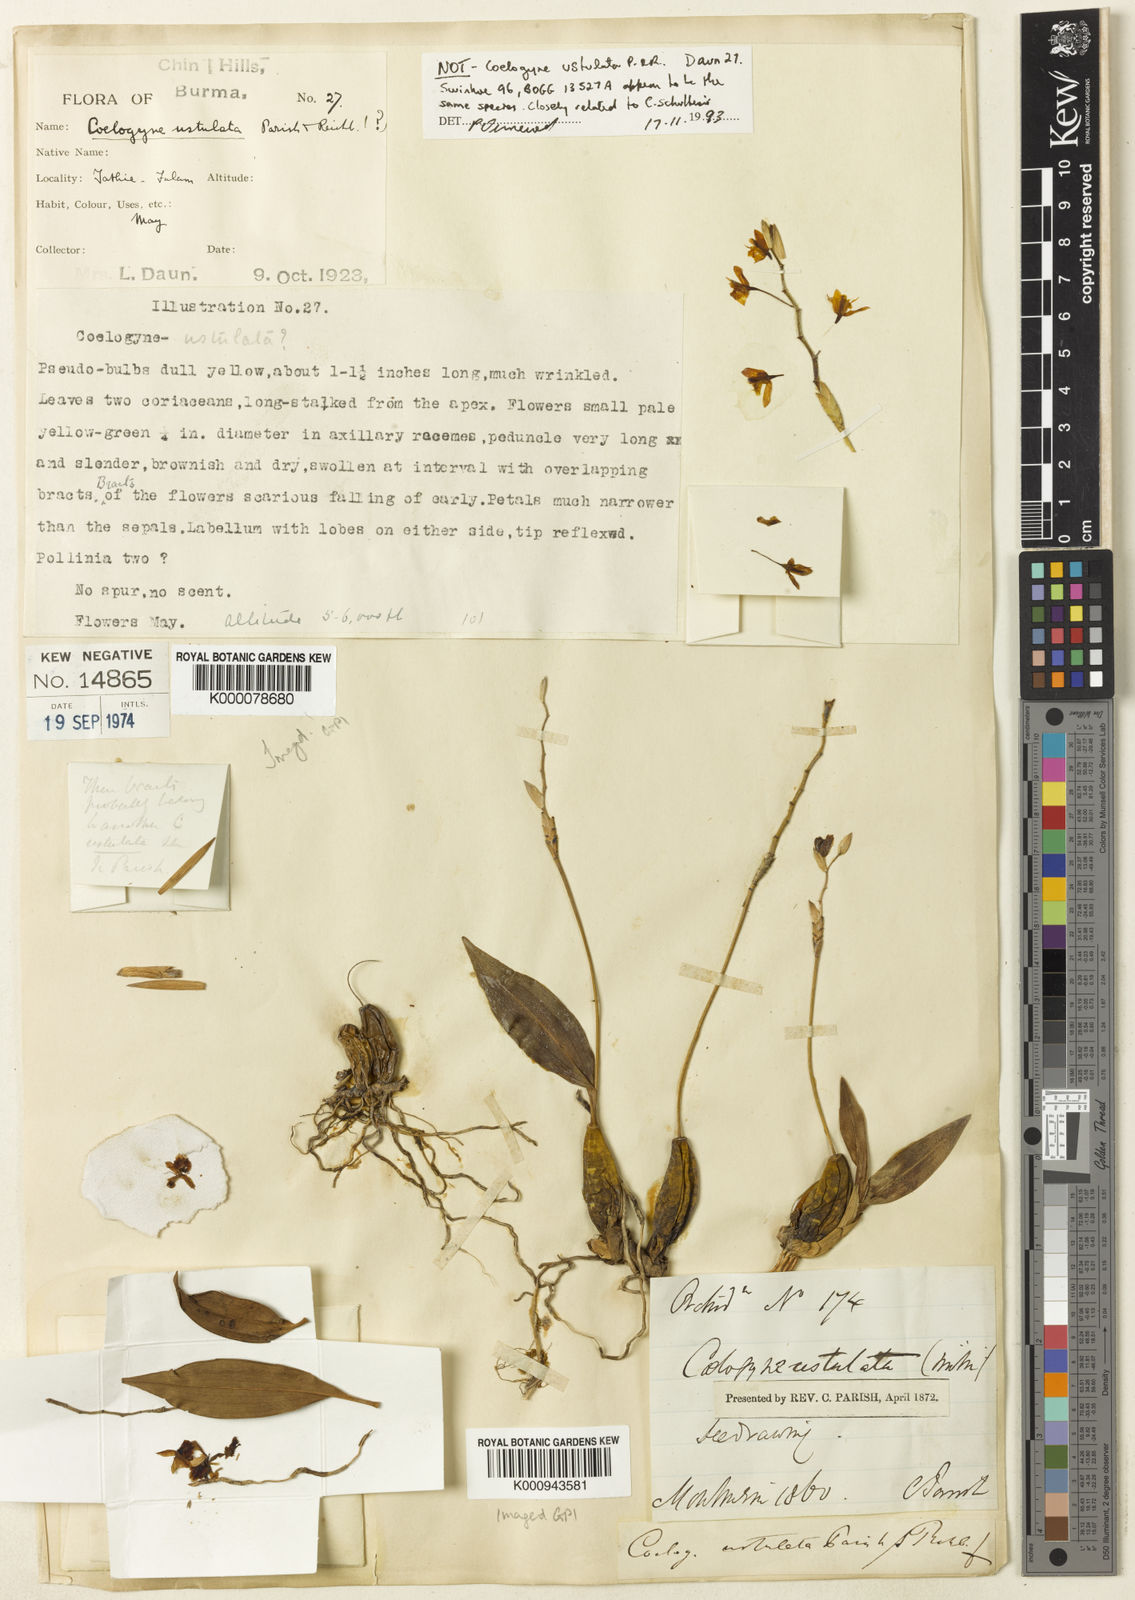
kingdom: Plantae
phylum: Tracheophyta
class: Liliopsida
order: Asparagales
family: Orchidaceae
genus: Coelogyne
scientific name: Coelogyne ustulata
